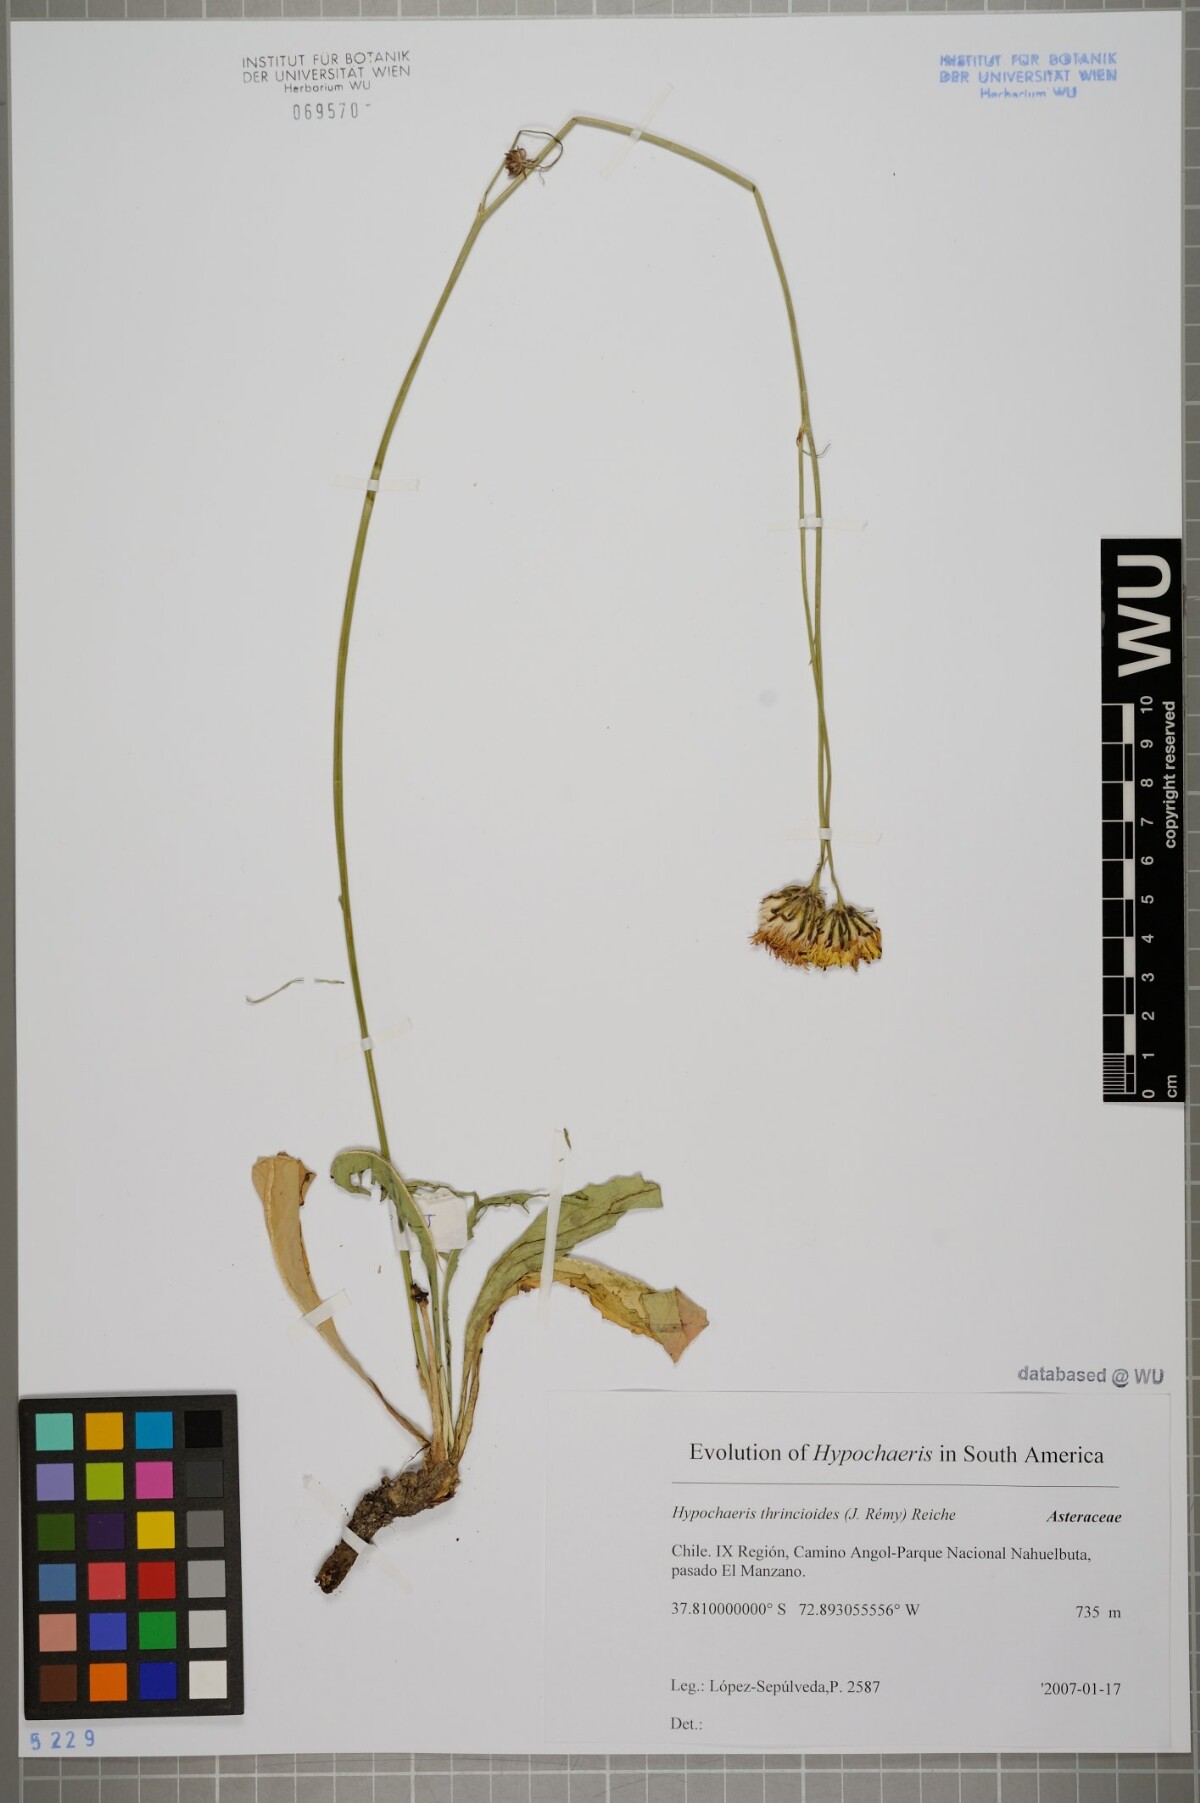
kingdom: Plantae
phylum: Tracheophyta
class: Magnoliopsida
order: Asterales
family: Asteraceae
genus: Hypochaeris
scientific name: Hypochaeris apargioides
